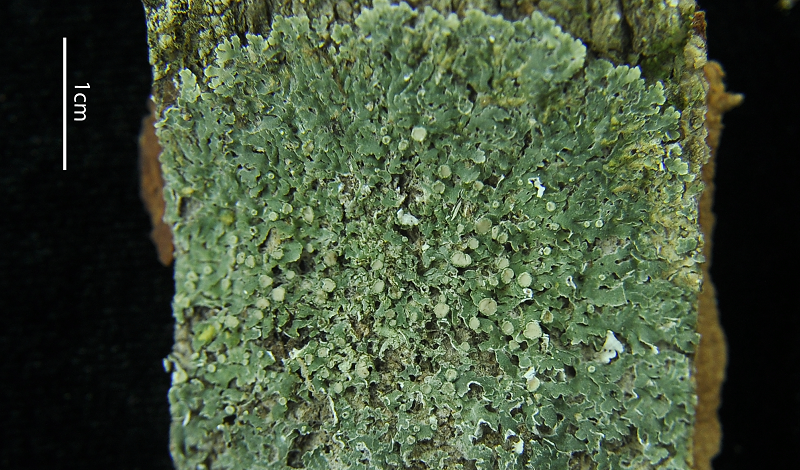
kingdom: Fungi
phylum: Ascomycota
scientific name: Ascomycota
